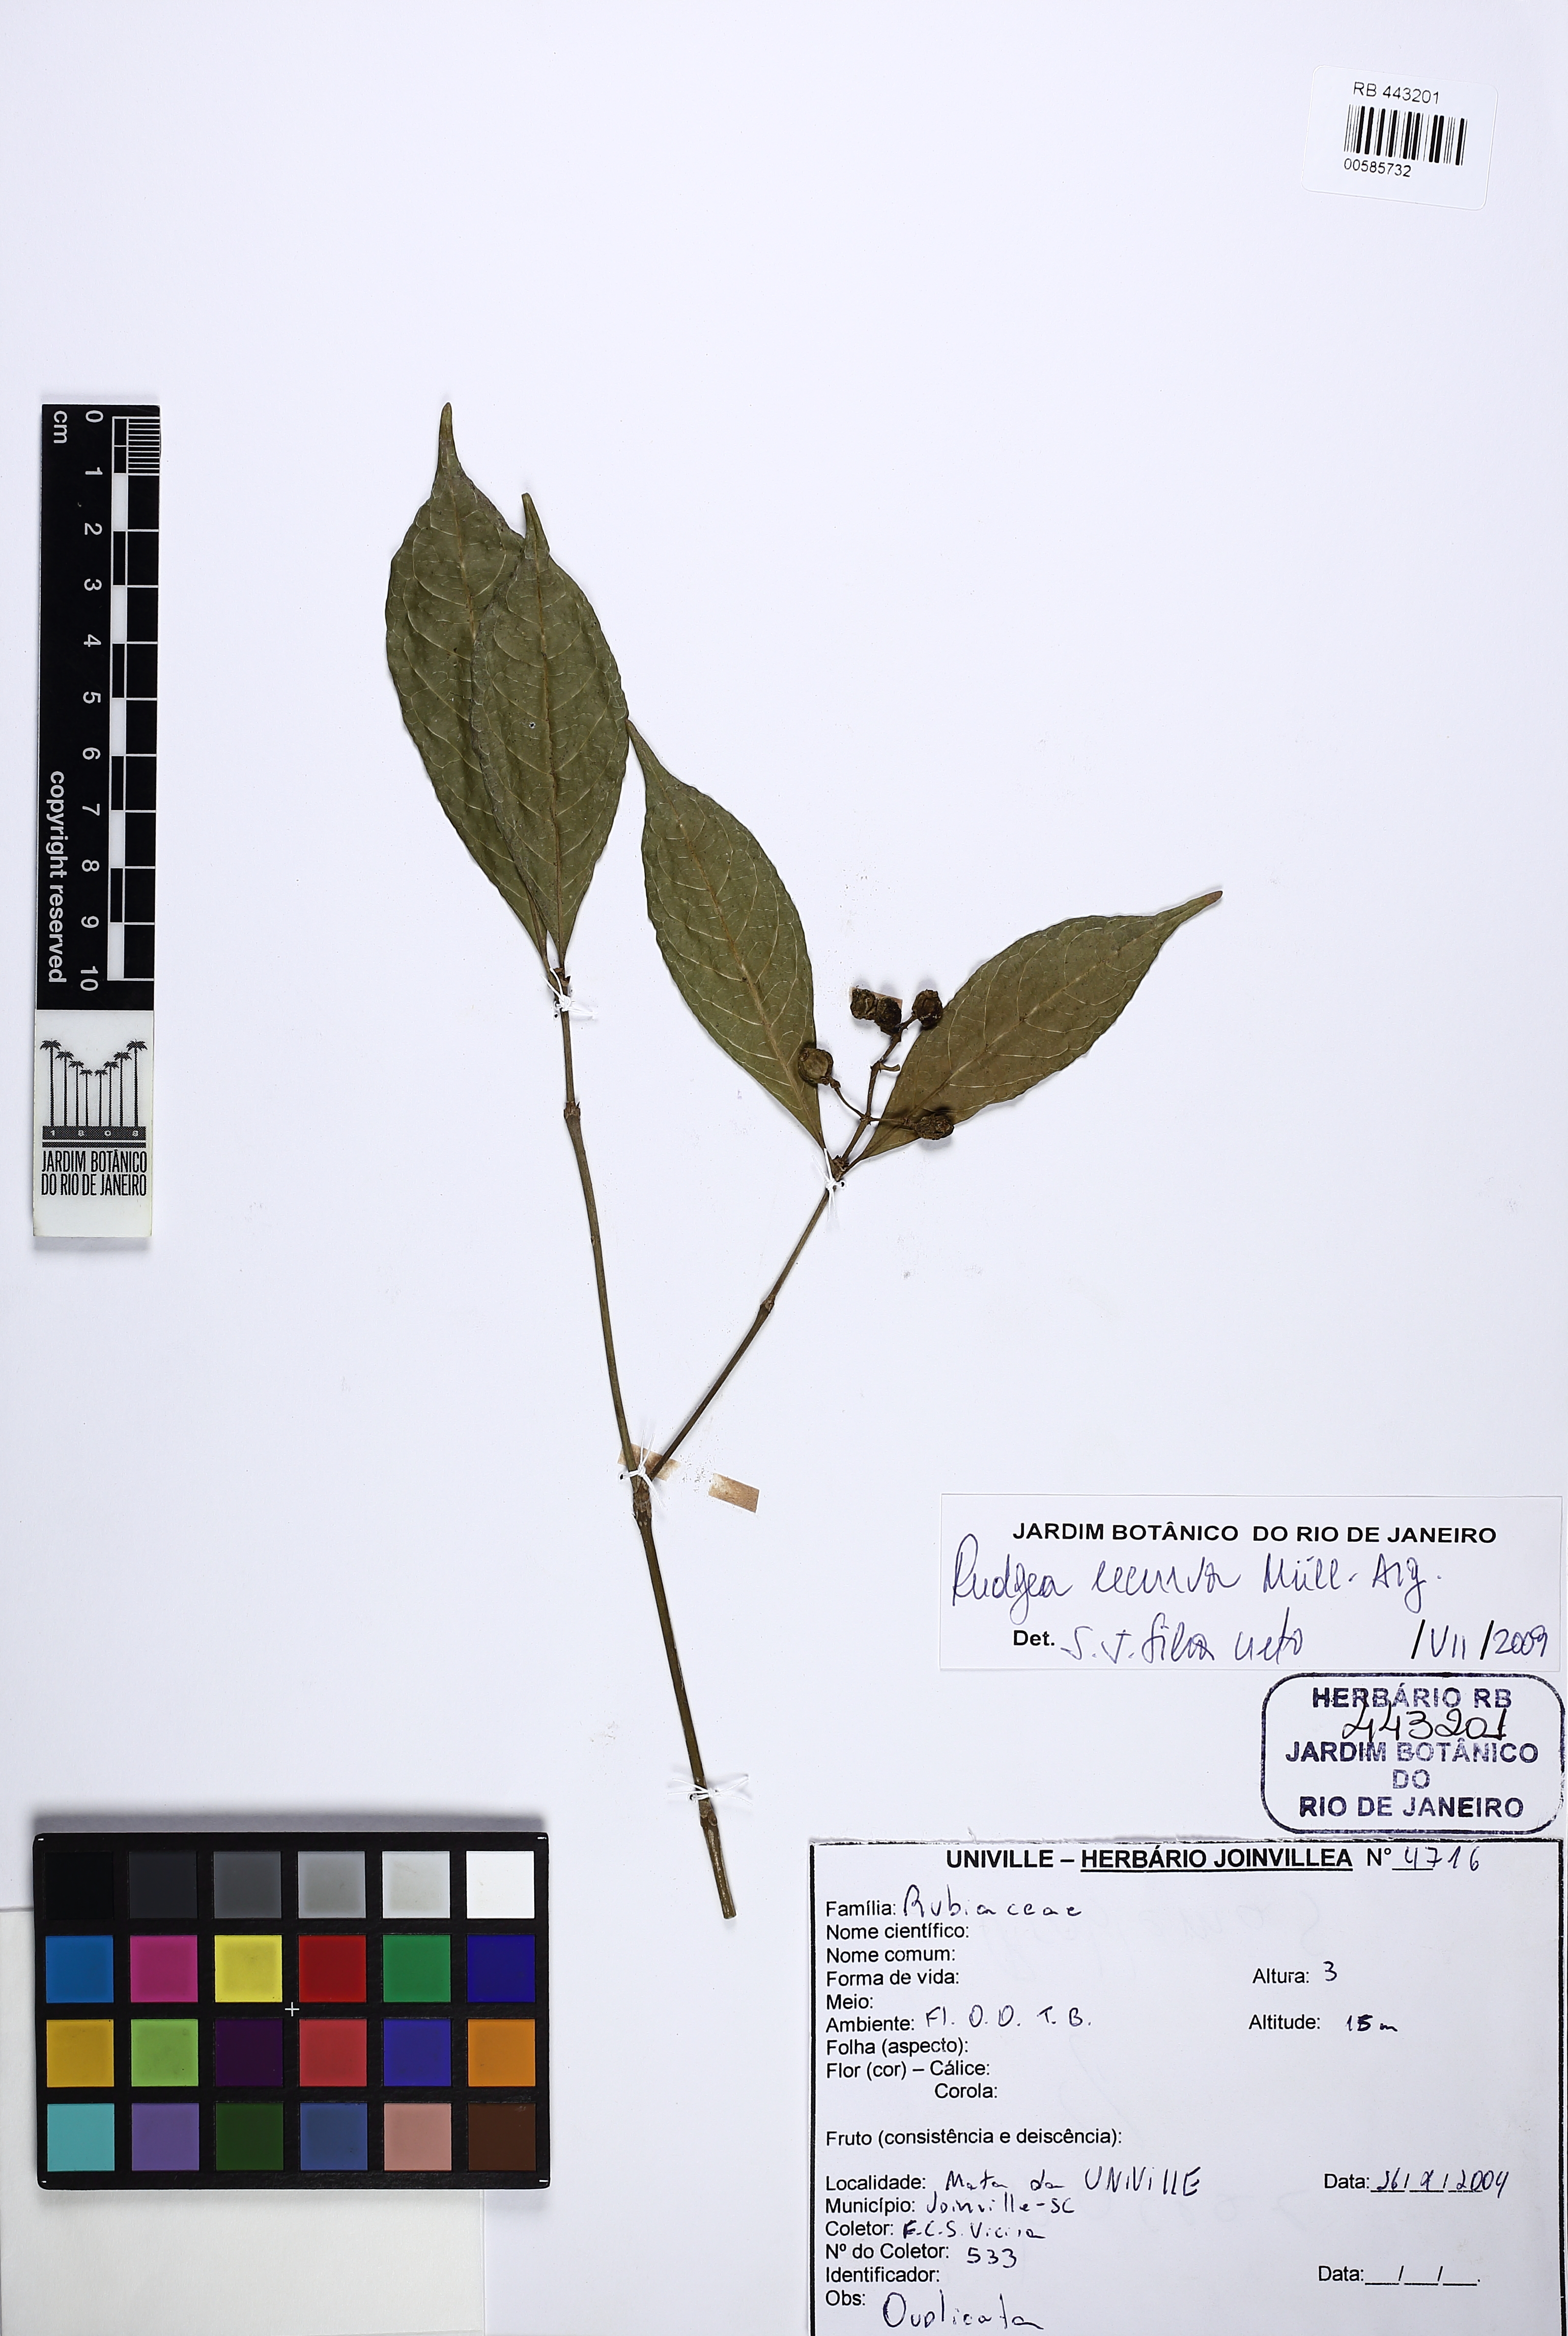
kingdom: Plantae
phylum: Tracheophyta
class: Magnoliopsida
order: Gentianales
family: Rubiaceae
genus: Rudgea
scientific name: Rudgea recurva
